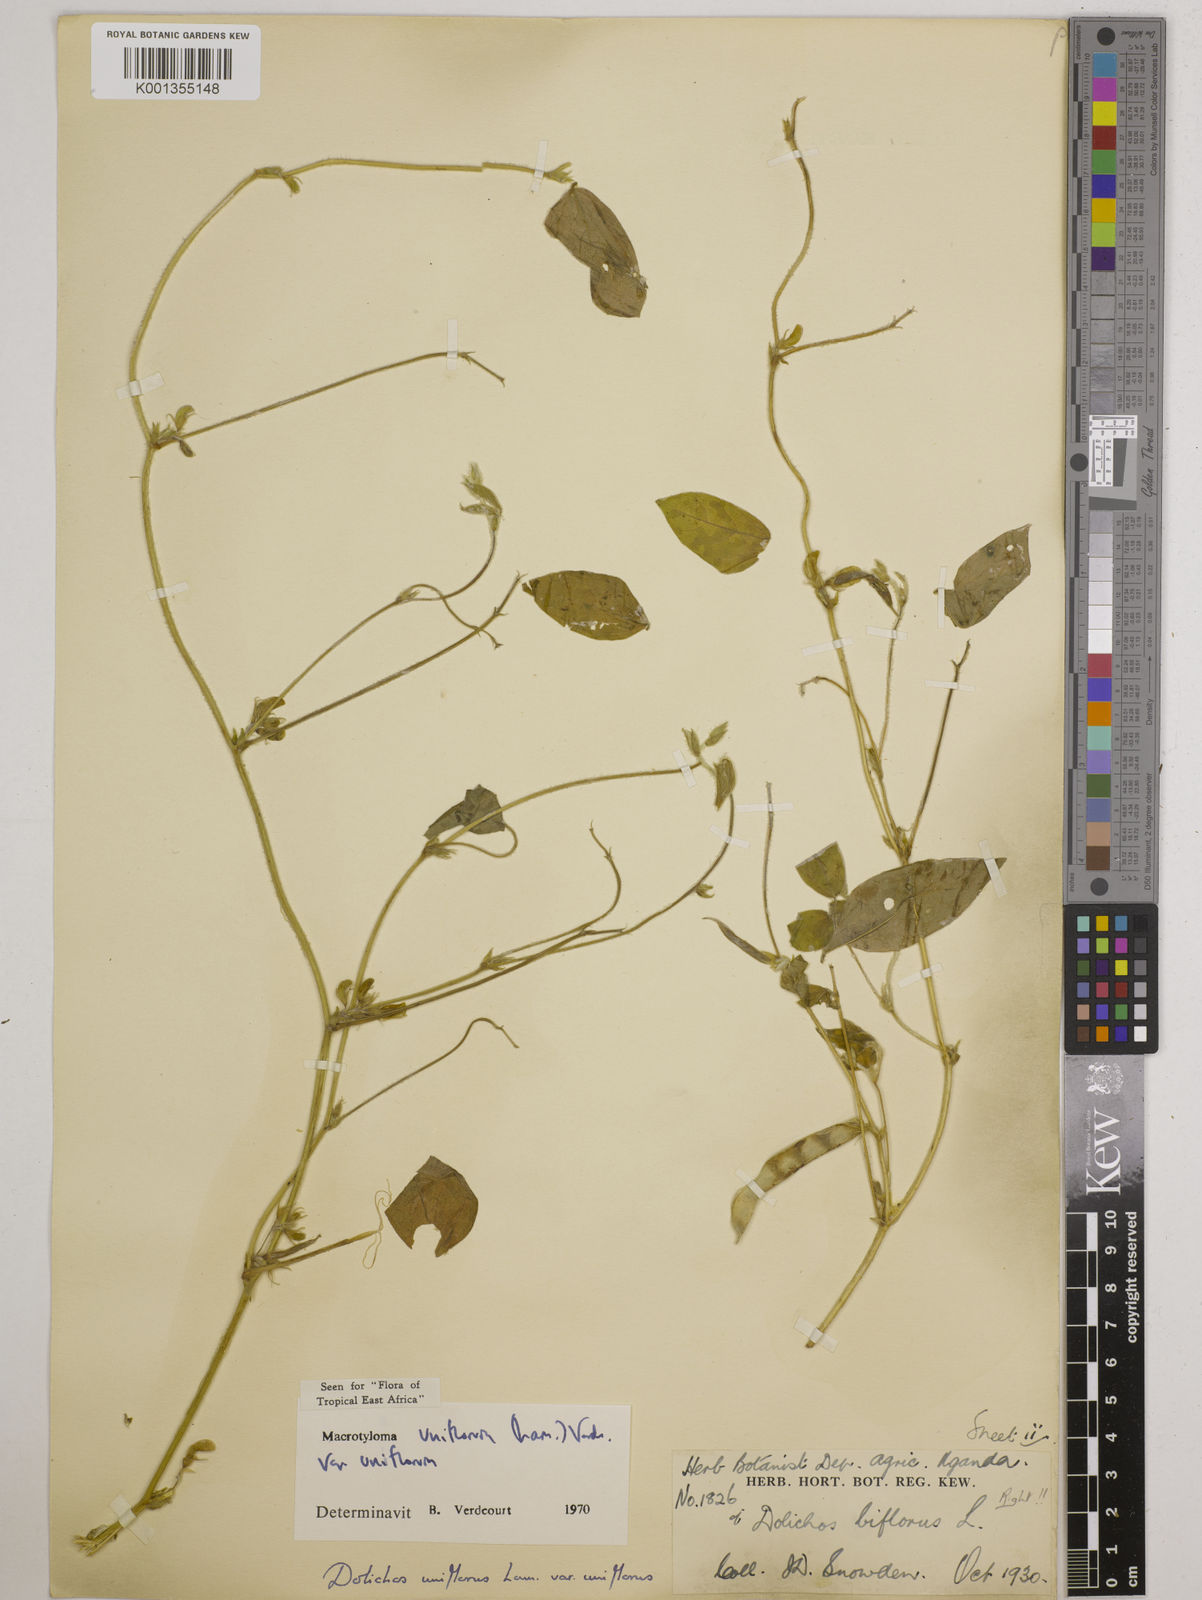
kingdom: Plantae
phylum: Tracheophyta
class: Magnoliopsida
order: Fabales
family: Fabaceae
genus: Macrotyloma
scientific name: Macrotyloma uniflorum
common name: Horse gram
